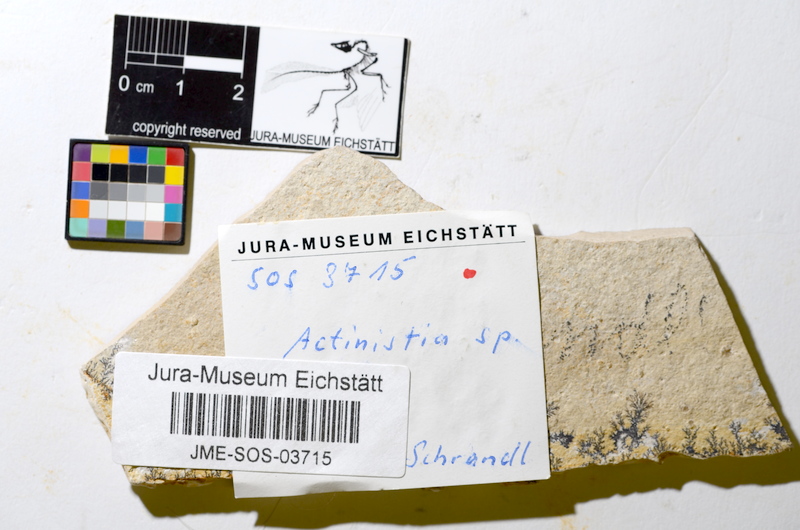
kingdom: Animalia
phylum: Chordata
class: Coelacanthi
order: Coelacanthiformes
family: Coelacanthidae
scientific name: Coelacanthidae
